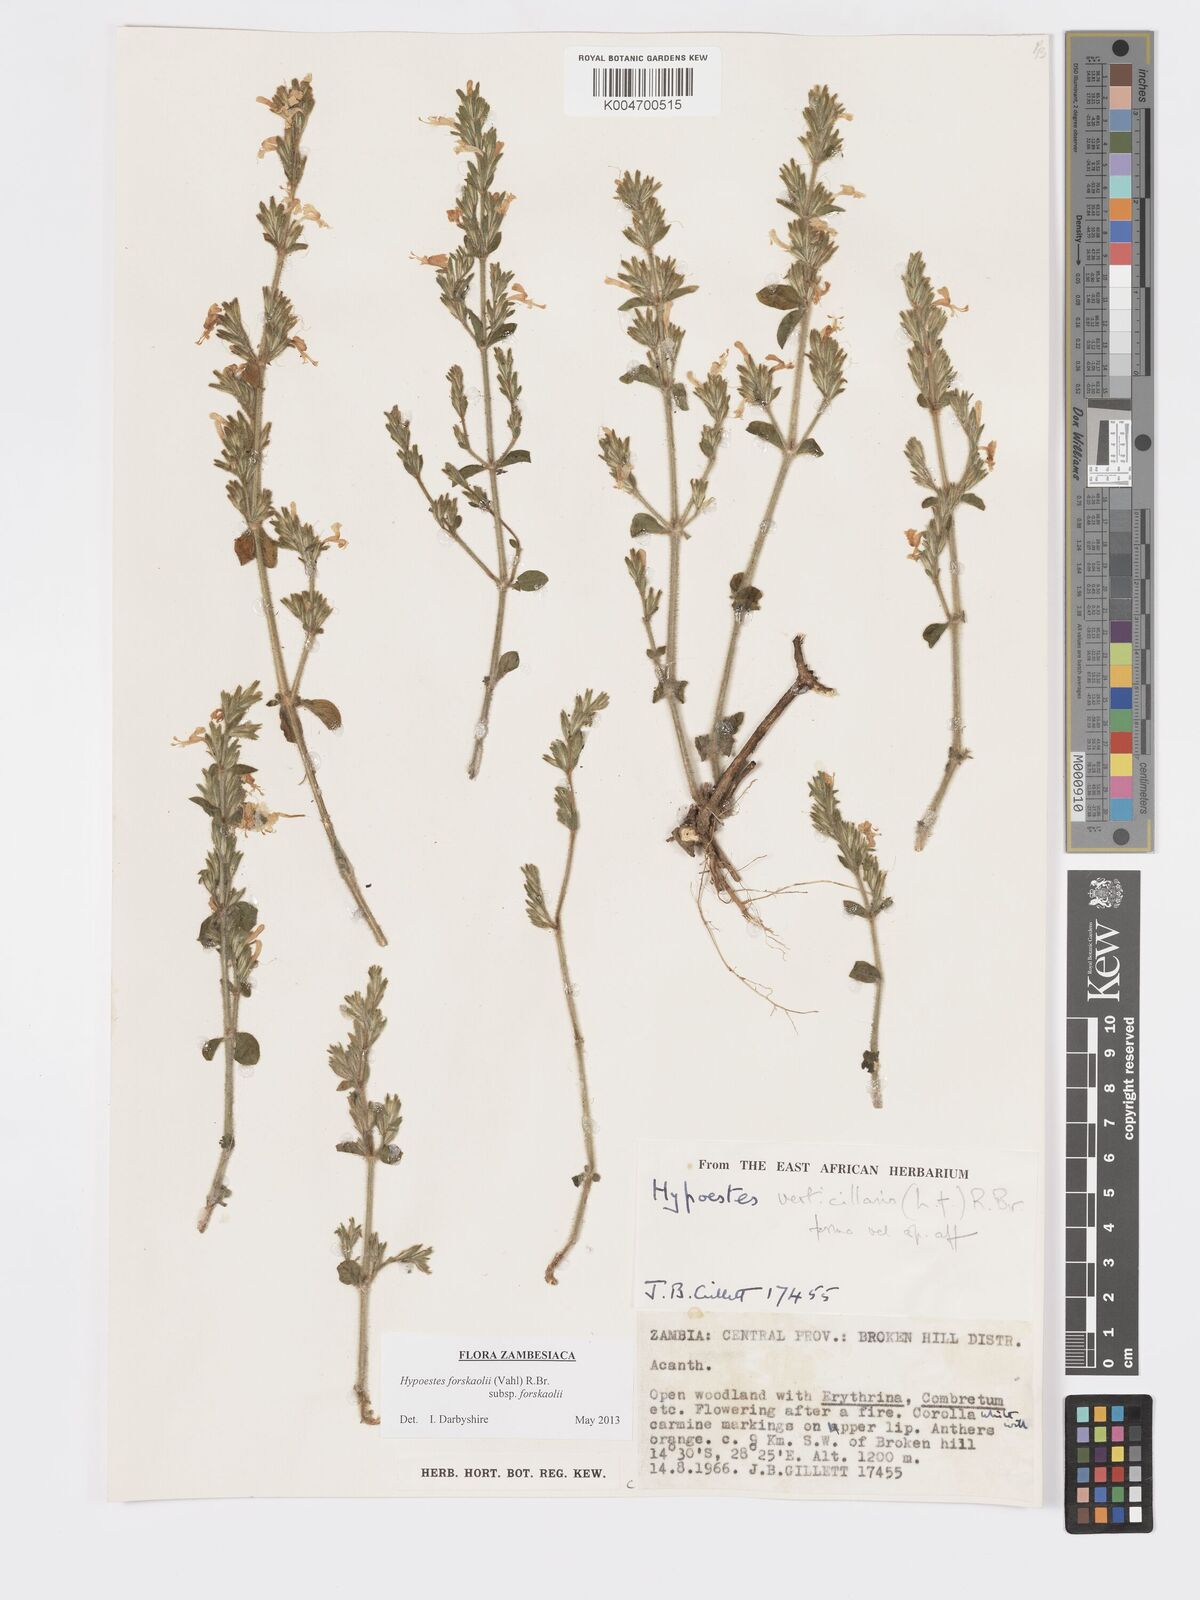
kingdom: Plantae
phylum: Tracheophyta
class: Magnoliopsida
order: Lamiales
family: Acanthaceae
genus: Hypoestes
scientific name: Hypoestes forskaolii
